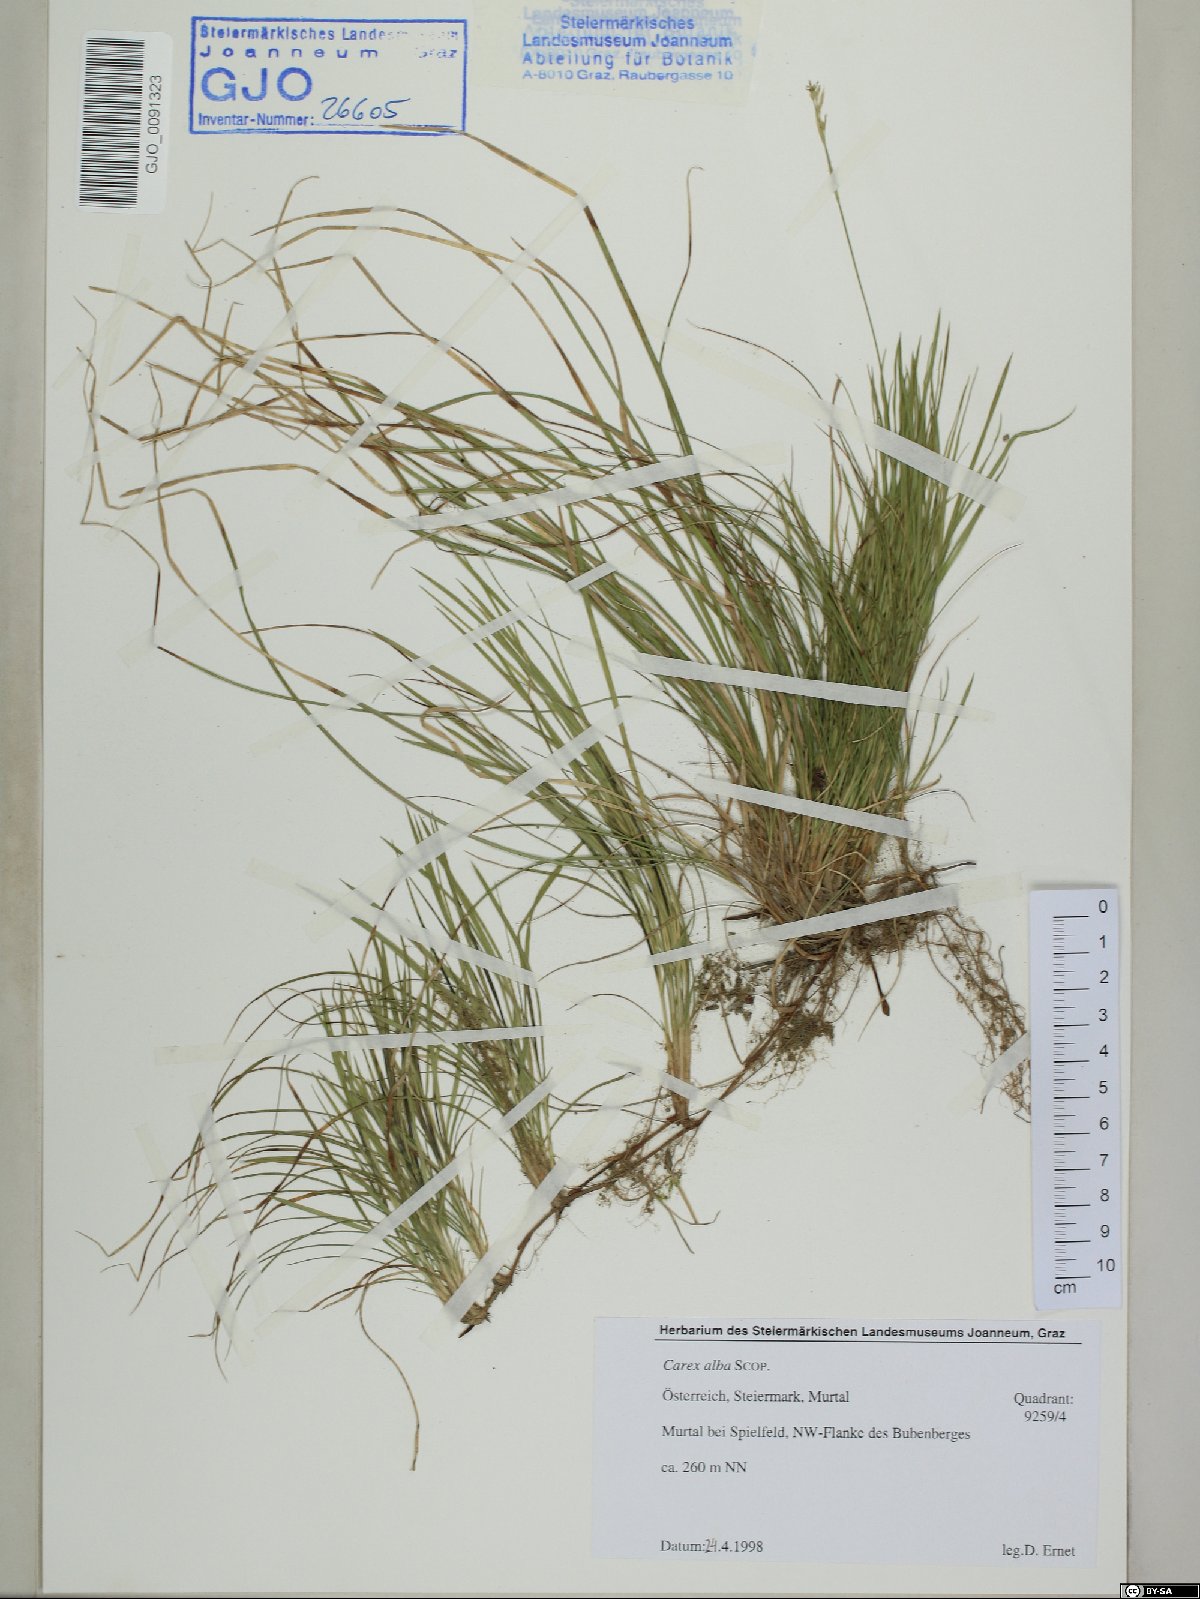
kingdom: Plantae
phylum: Tracheophyta
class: Liliopsida
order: Poales
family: Cyperaceae
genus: Carex
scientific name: Carex alba
